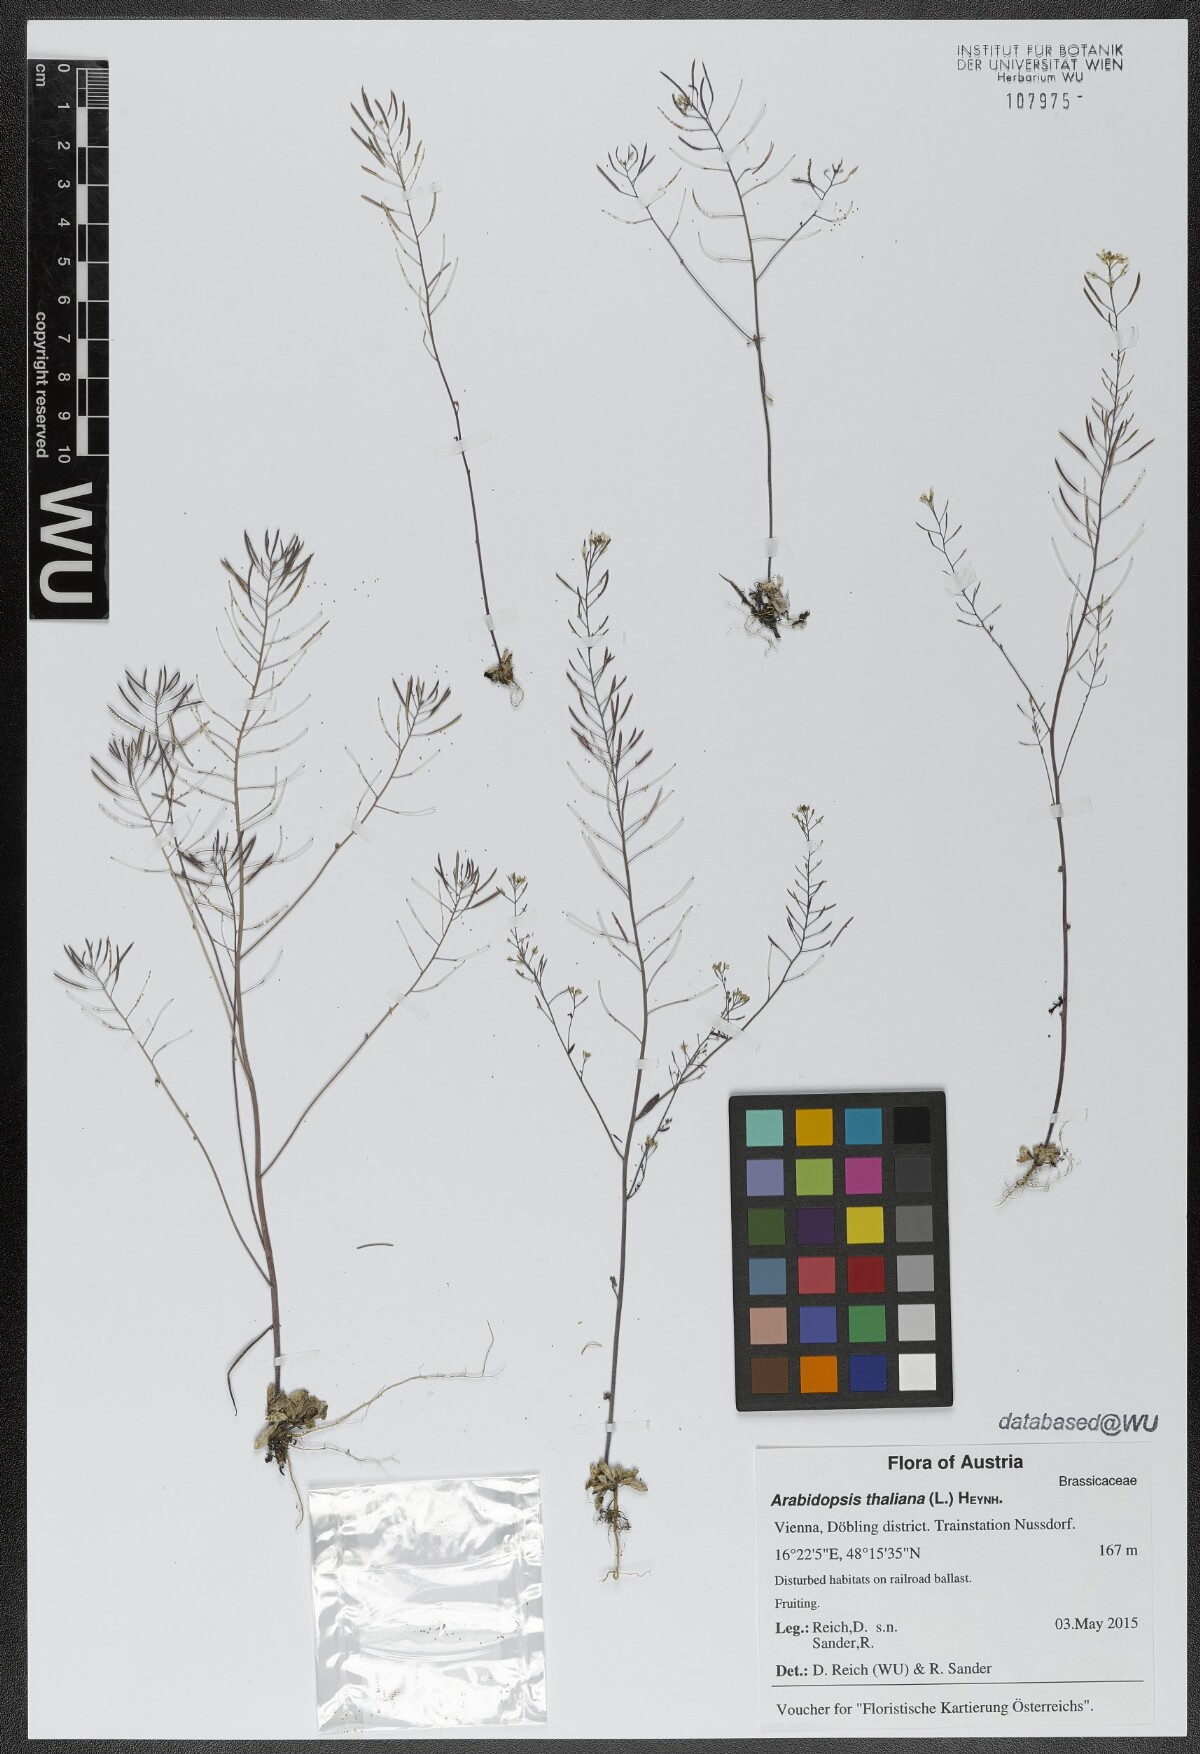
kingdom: Plantae
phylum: Tracheophyta
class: Magnoliopsida
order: Brassicales
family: Brassicaceae
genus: Arabidopsis
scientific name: Arabidopsis thaliana
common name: Thale cress
